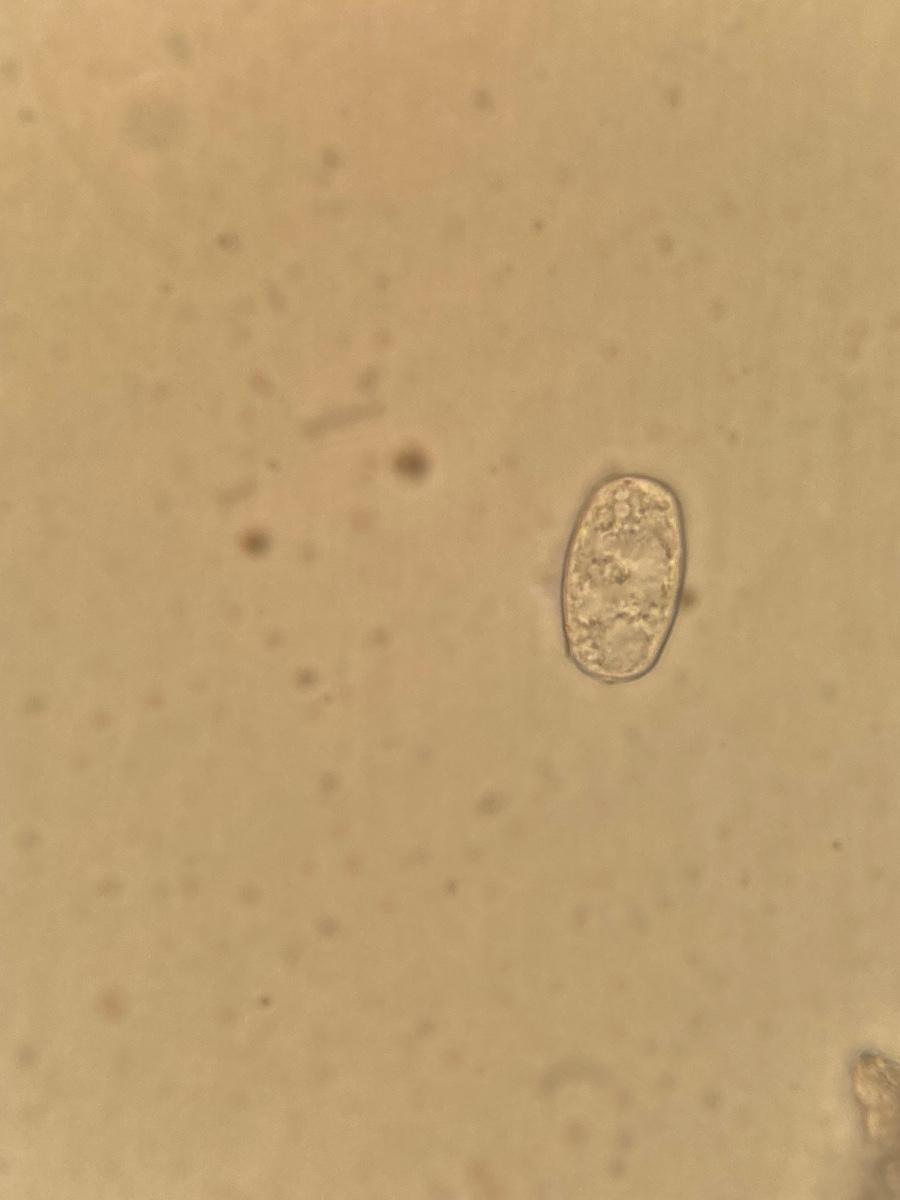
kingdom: Fungi
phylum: Ascomycota
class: Leotiomycetes
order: Helotiales
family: Erysiphaceae
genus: Golovinomyces
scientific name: Golovinomyces asperifolii
